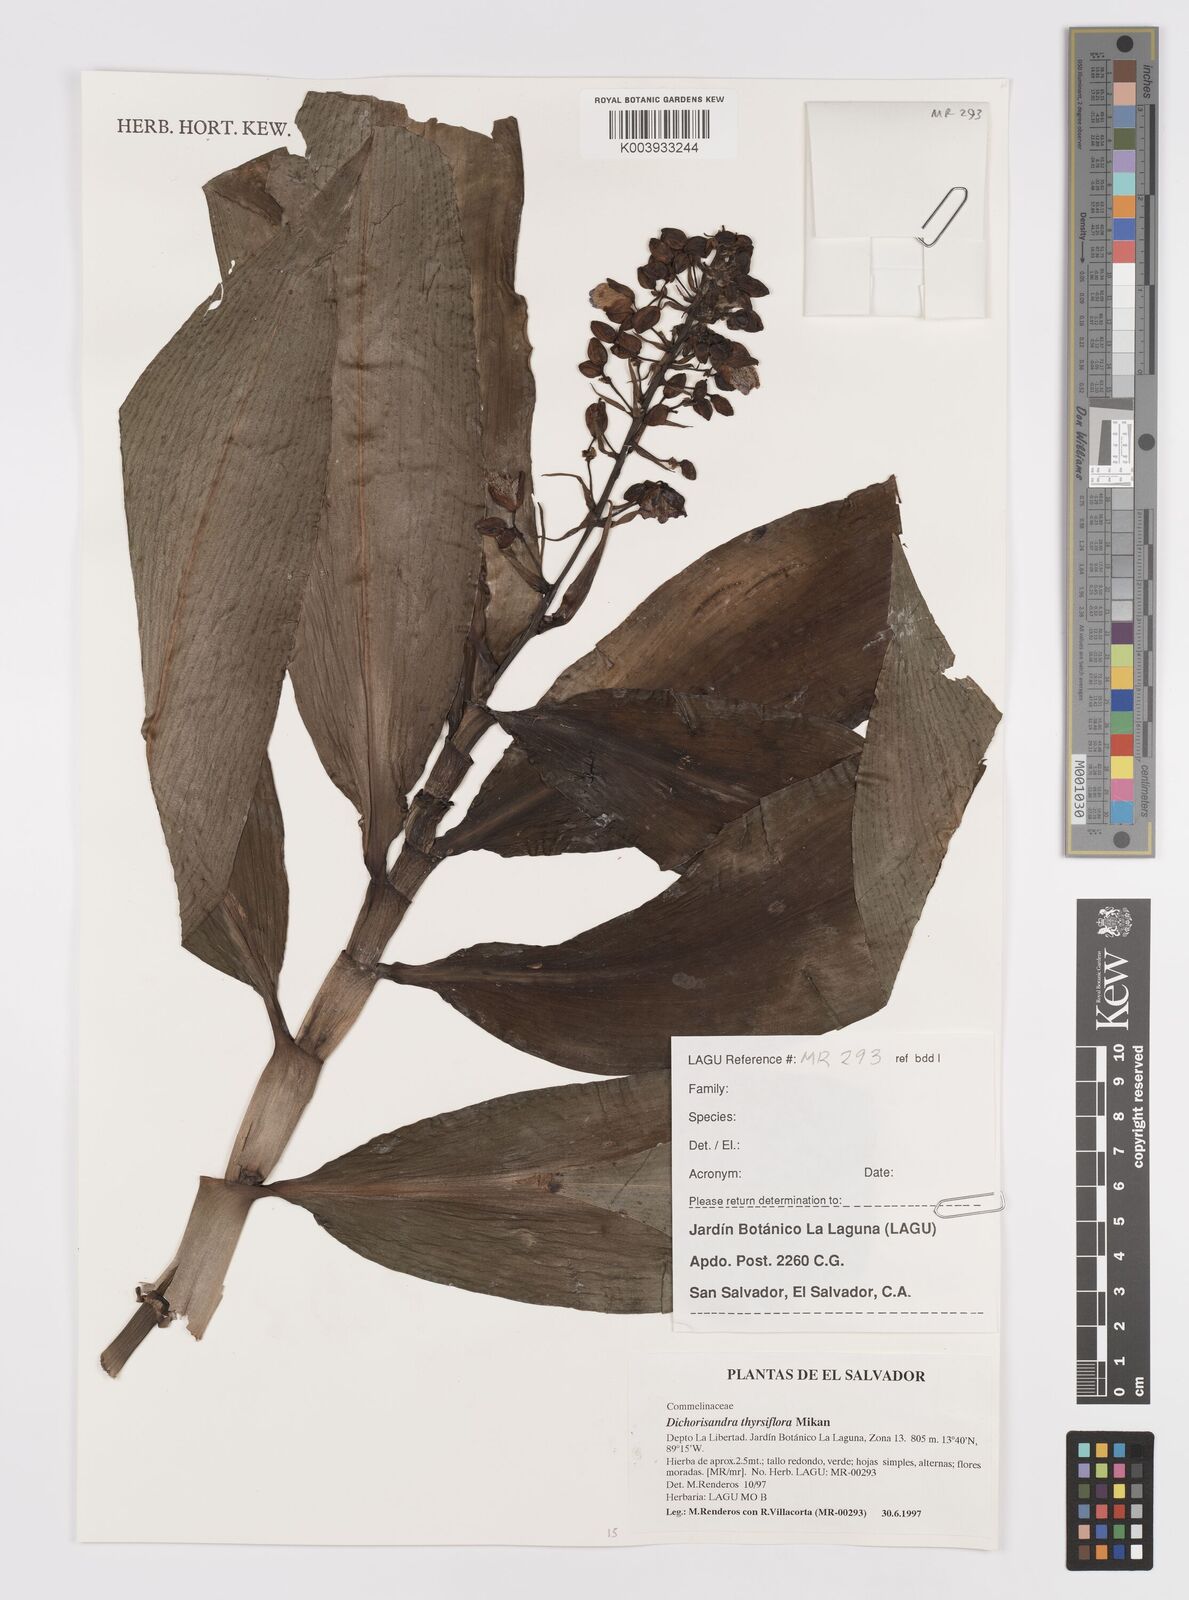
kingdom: Plantae
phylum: Tracheophyta
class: Liliopsida
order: Commelinales
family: Commelinaceae
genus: Dichorisandra
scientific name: Dichorisandra thyrsiflora
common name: Blue-ginger
